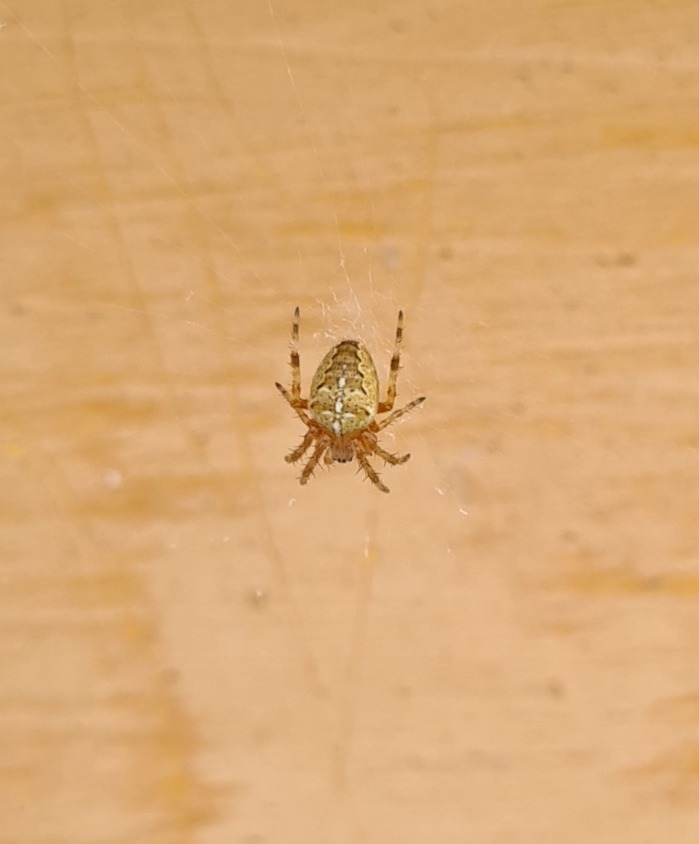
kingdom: Animalia
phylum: Arthropoda
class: Arachnida
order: Araneae
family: Araneidae
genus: Araneus
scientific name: Araneus diadematus
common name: Korsedderkop
